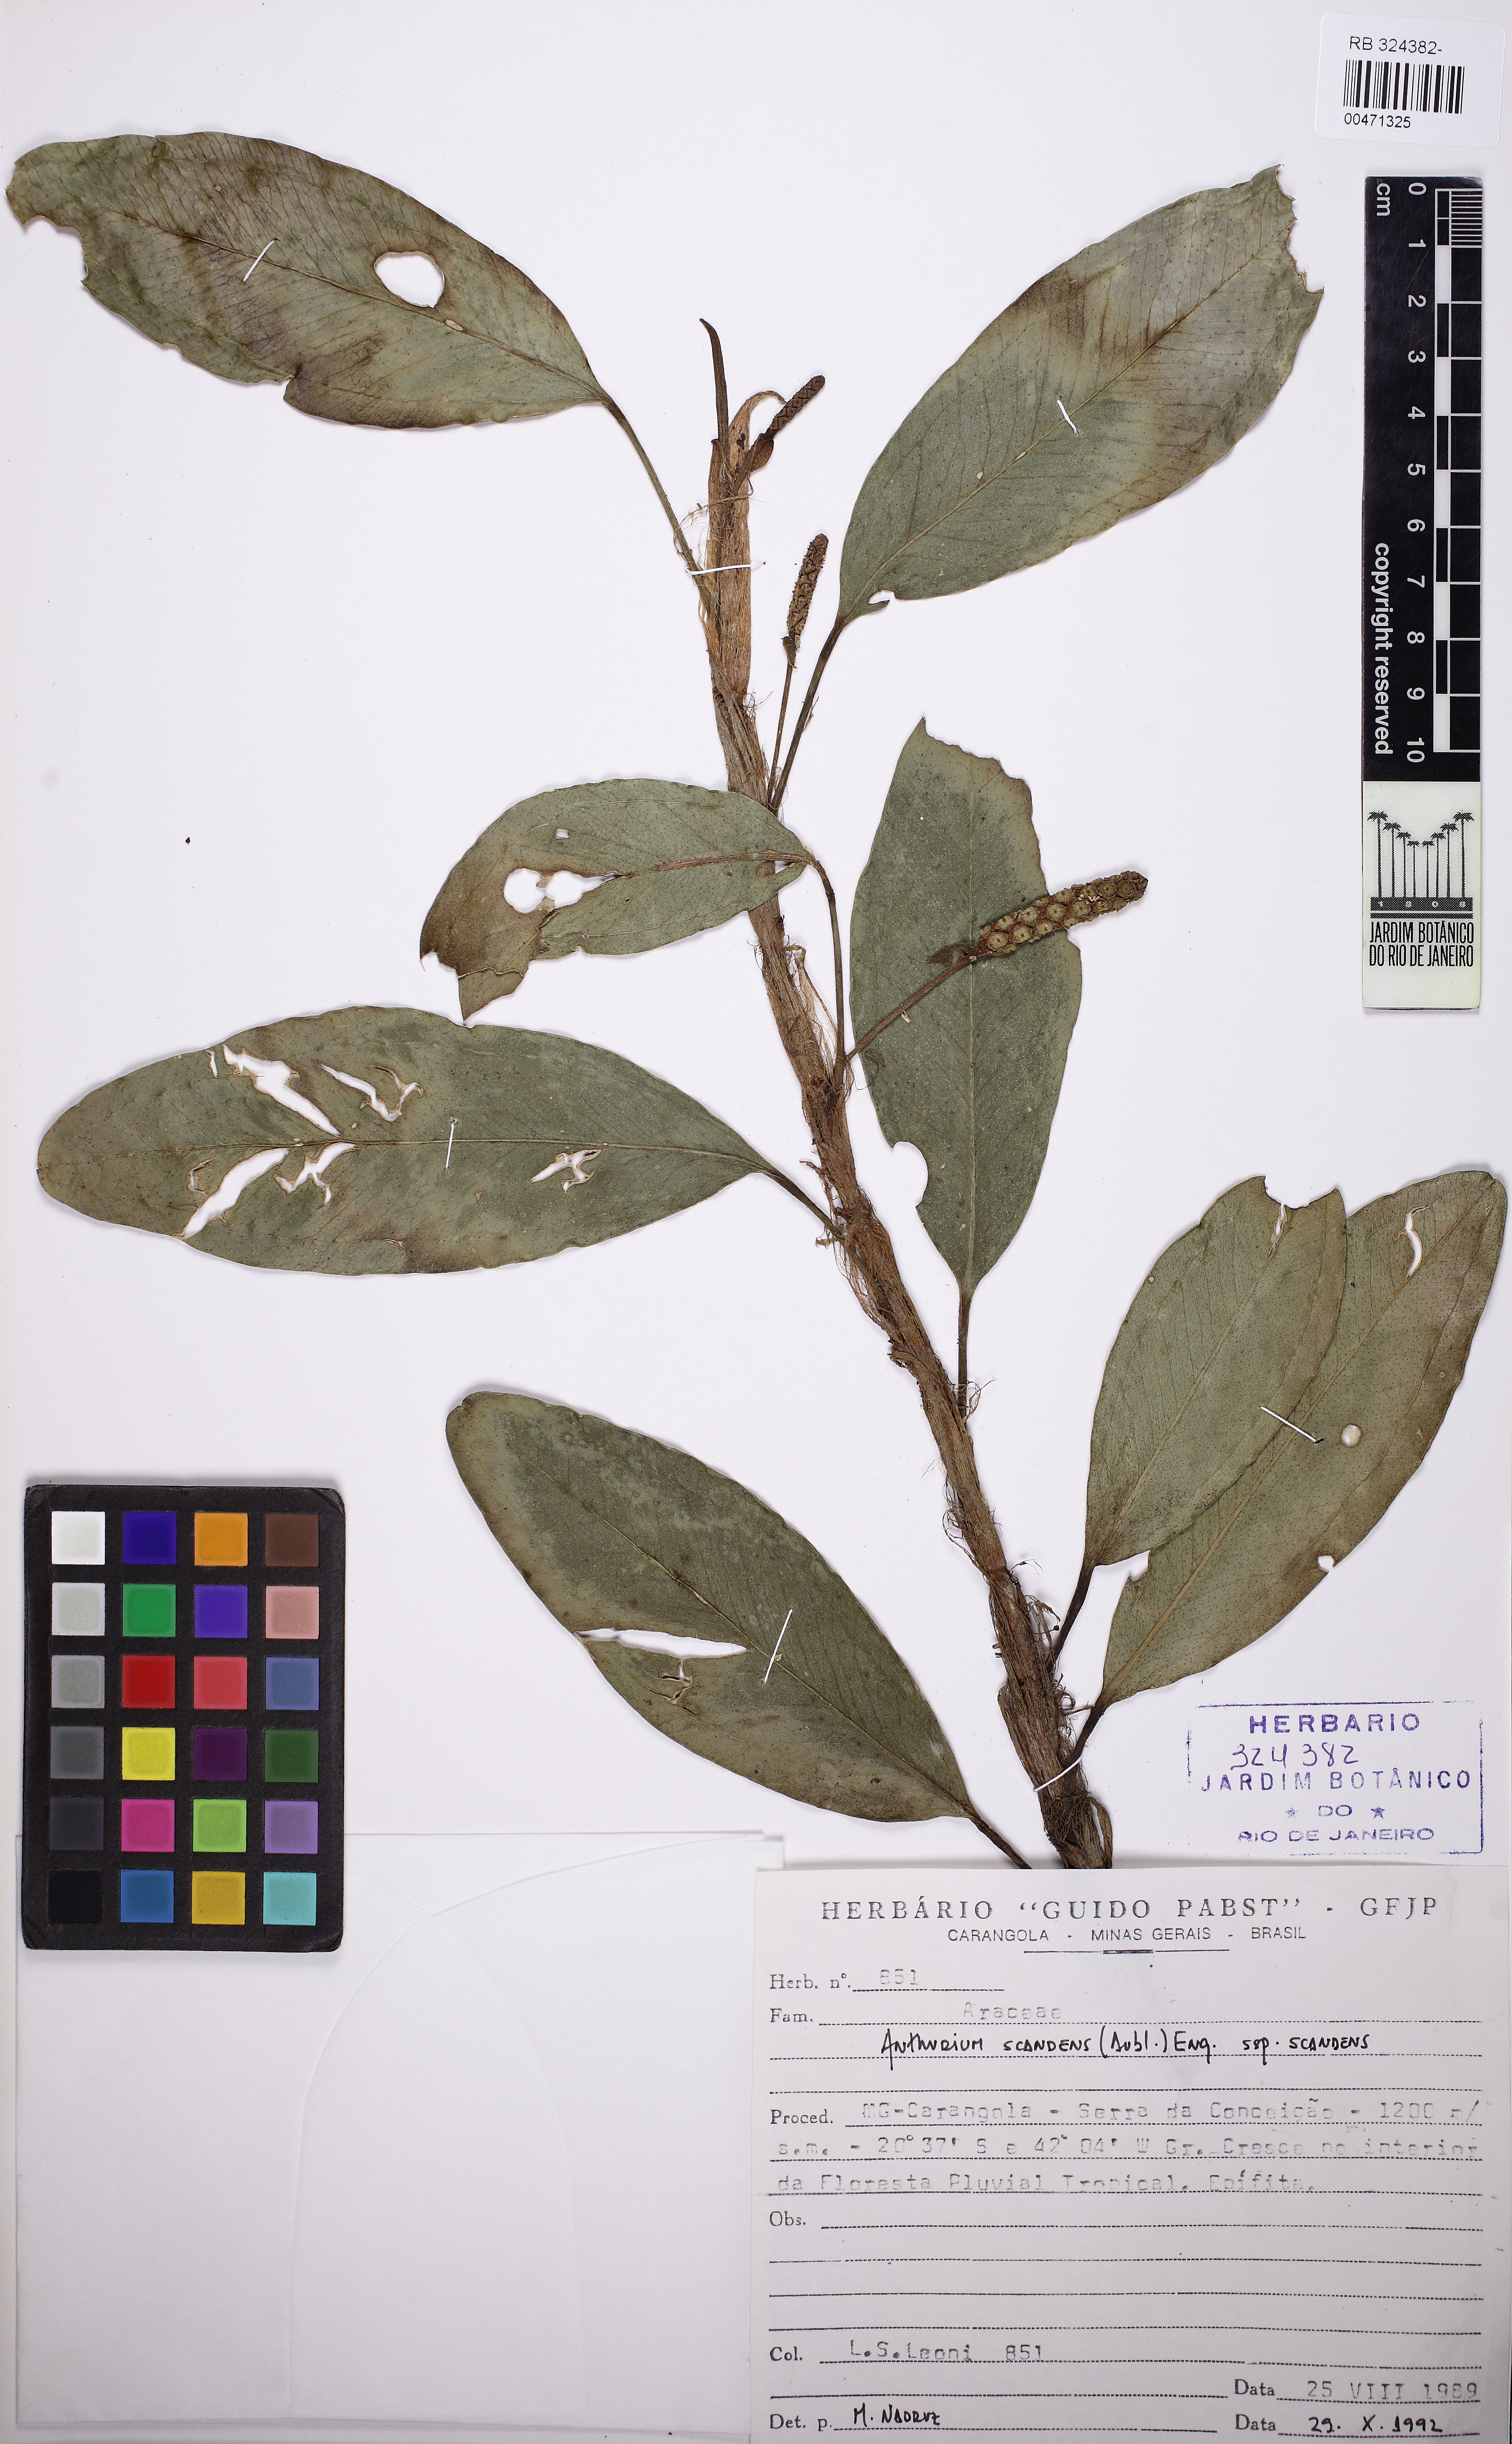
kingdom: Plantae
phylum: Tracheophyta
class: Liliopsida
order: Alismatales
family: Araceae
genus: Anthurium
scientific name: Anthurium scandens
